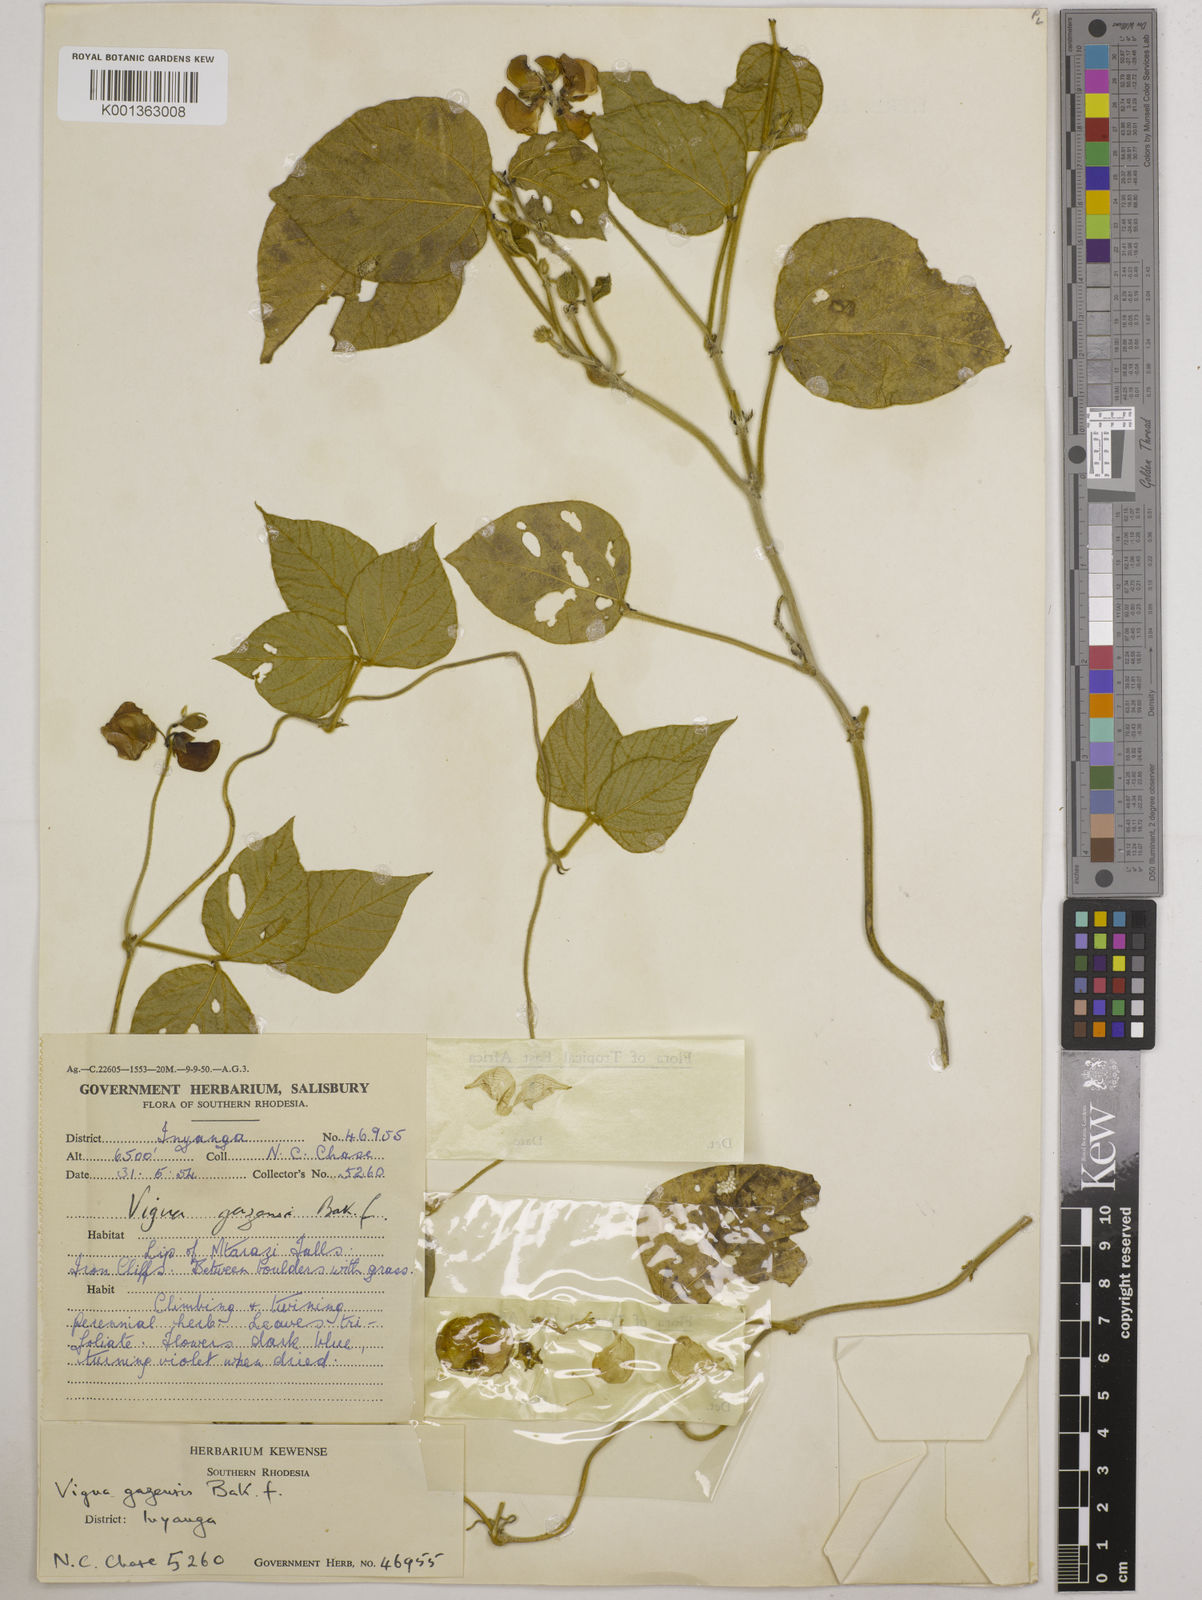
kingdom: Plantae
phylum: Tracheophyta
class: Magnoliopsida
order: Fabales
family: Fabaceae
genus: Vigna
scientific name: Vigna gazensis
